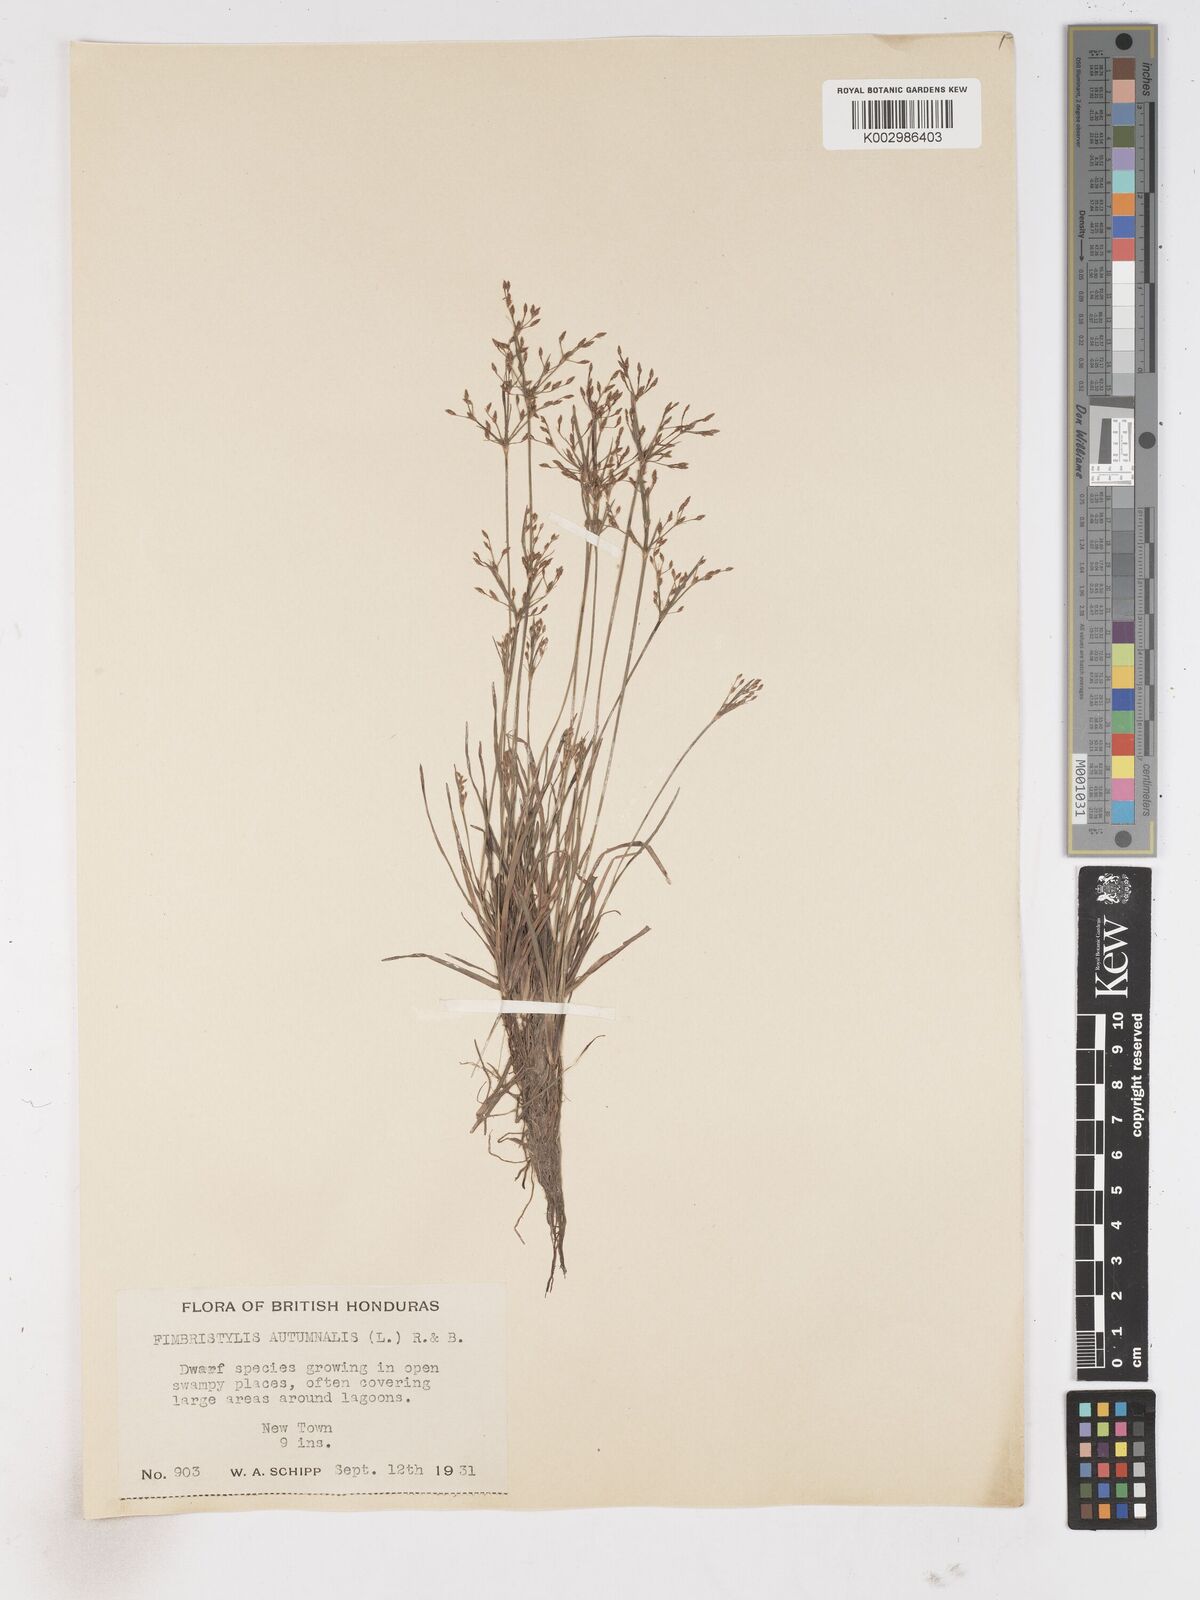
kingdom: Plantae
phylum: Tracheophyta
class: Liliopsida
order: Poales
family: Cyperaceae
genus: Fimbristylis
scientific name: Fimbristylis autumnalis
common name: Slender fimbristylis
